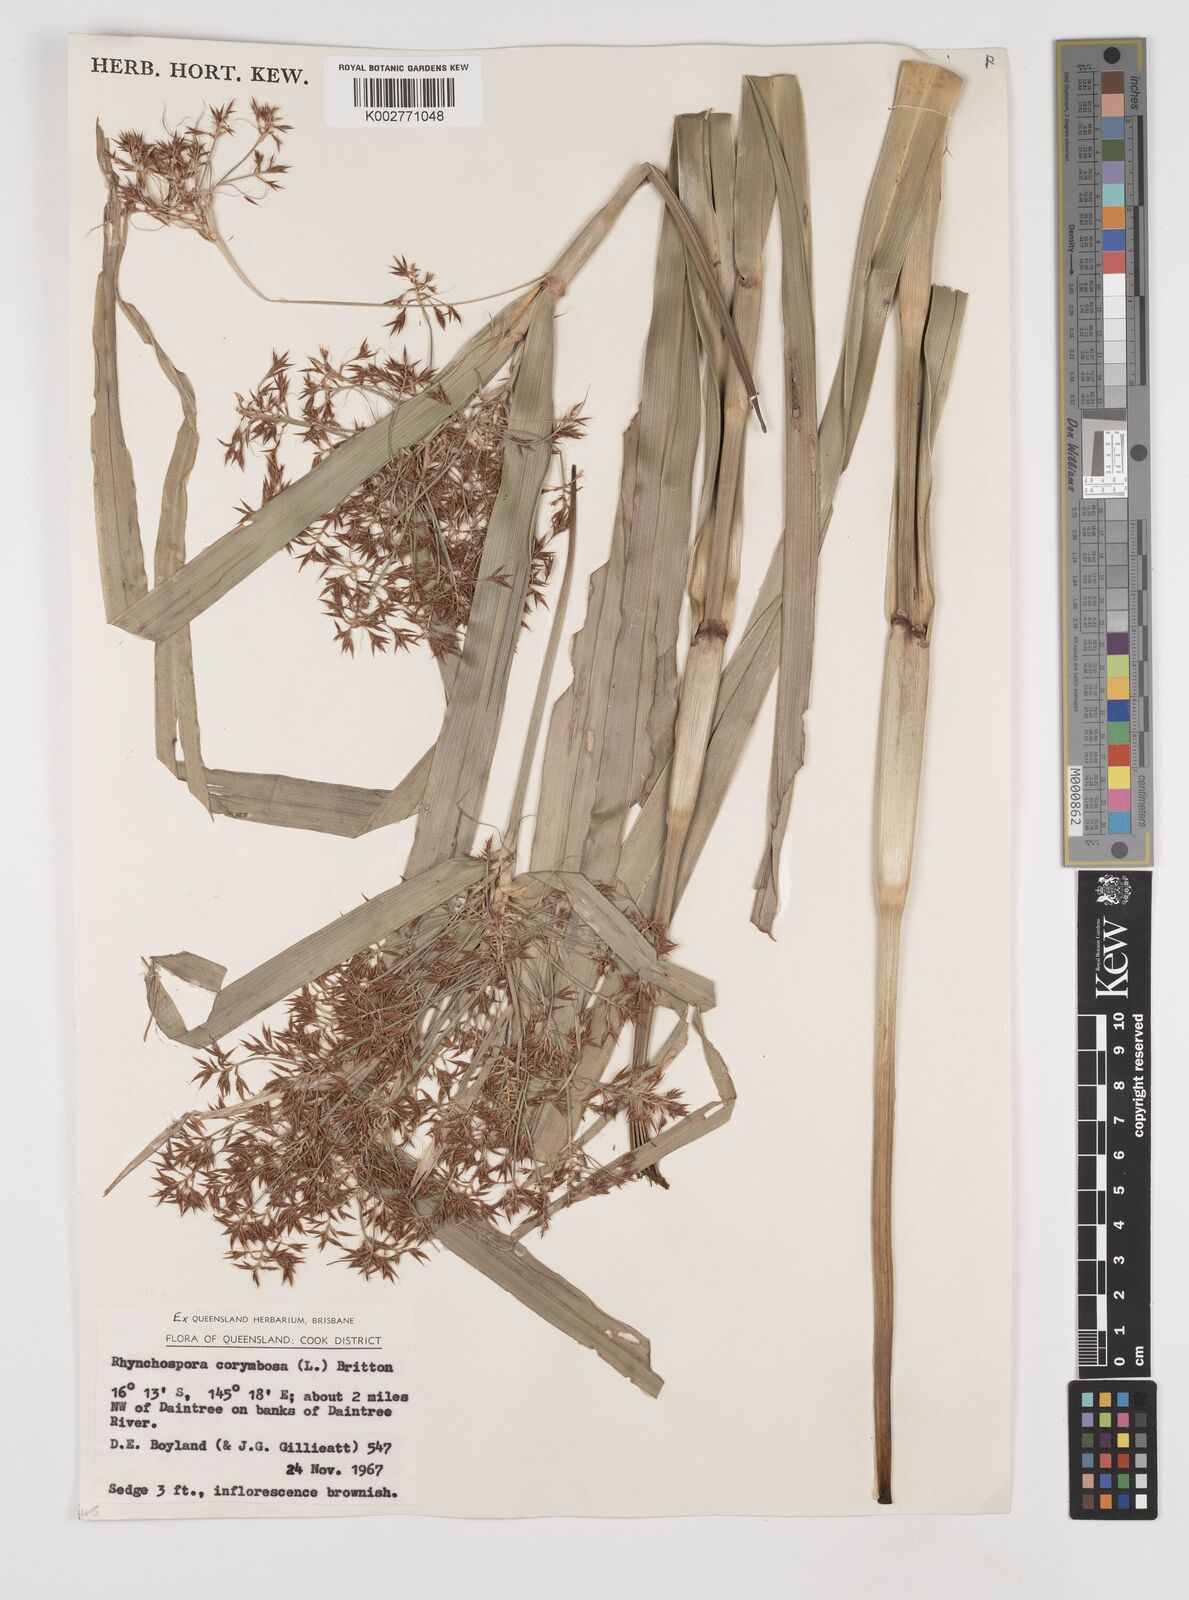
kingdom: Plantae
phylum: Tracheophyta
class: Liliopsida
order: Poales
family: Cyperaceae
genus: Rhynchospora
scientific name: Rhynchospora corymbosa
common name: Golden beak sedge
